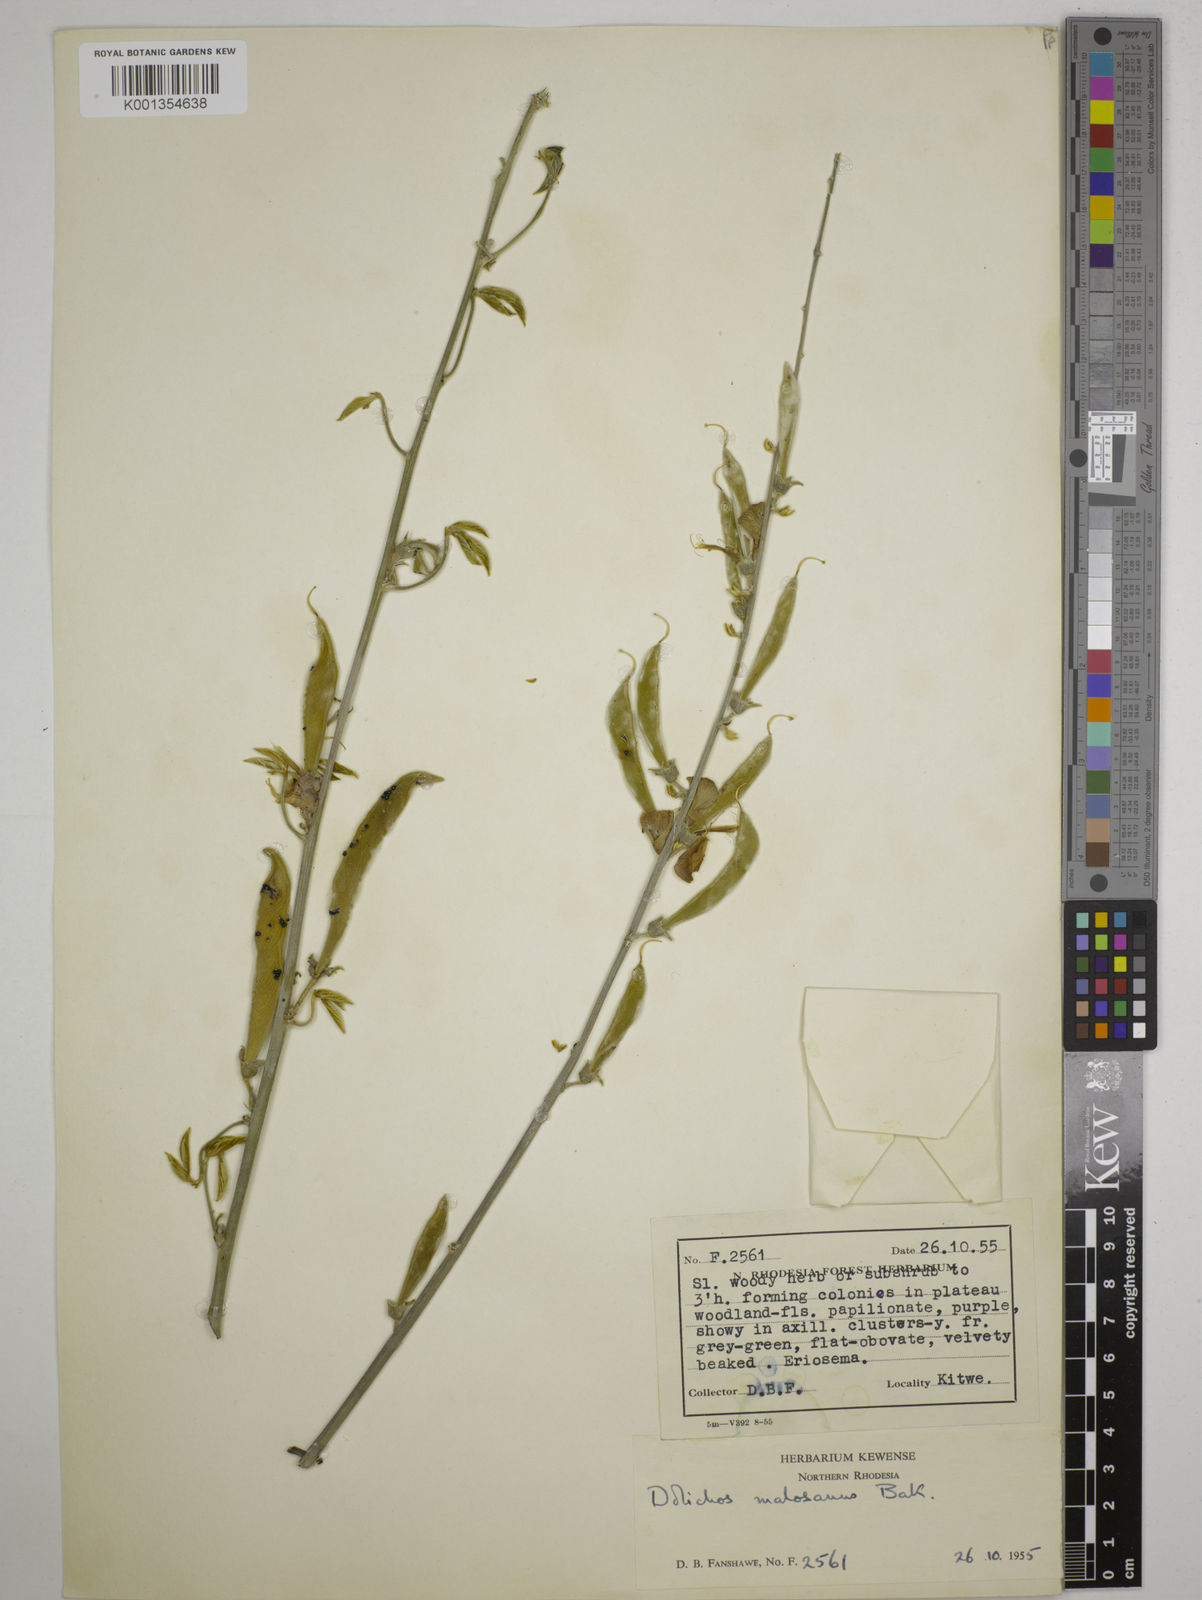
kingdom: Plantae
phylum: Tracheophyta
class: Magnoliopsida
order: Fabales
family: Fabaceae
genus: Dolichos
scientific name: Dolichos kilimandscharicus
